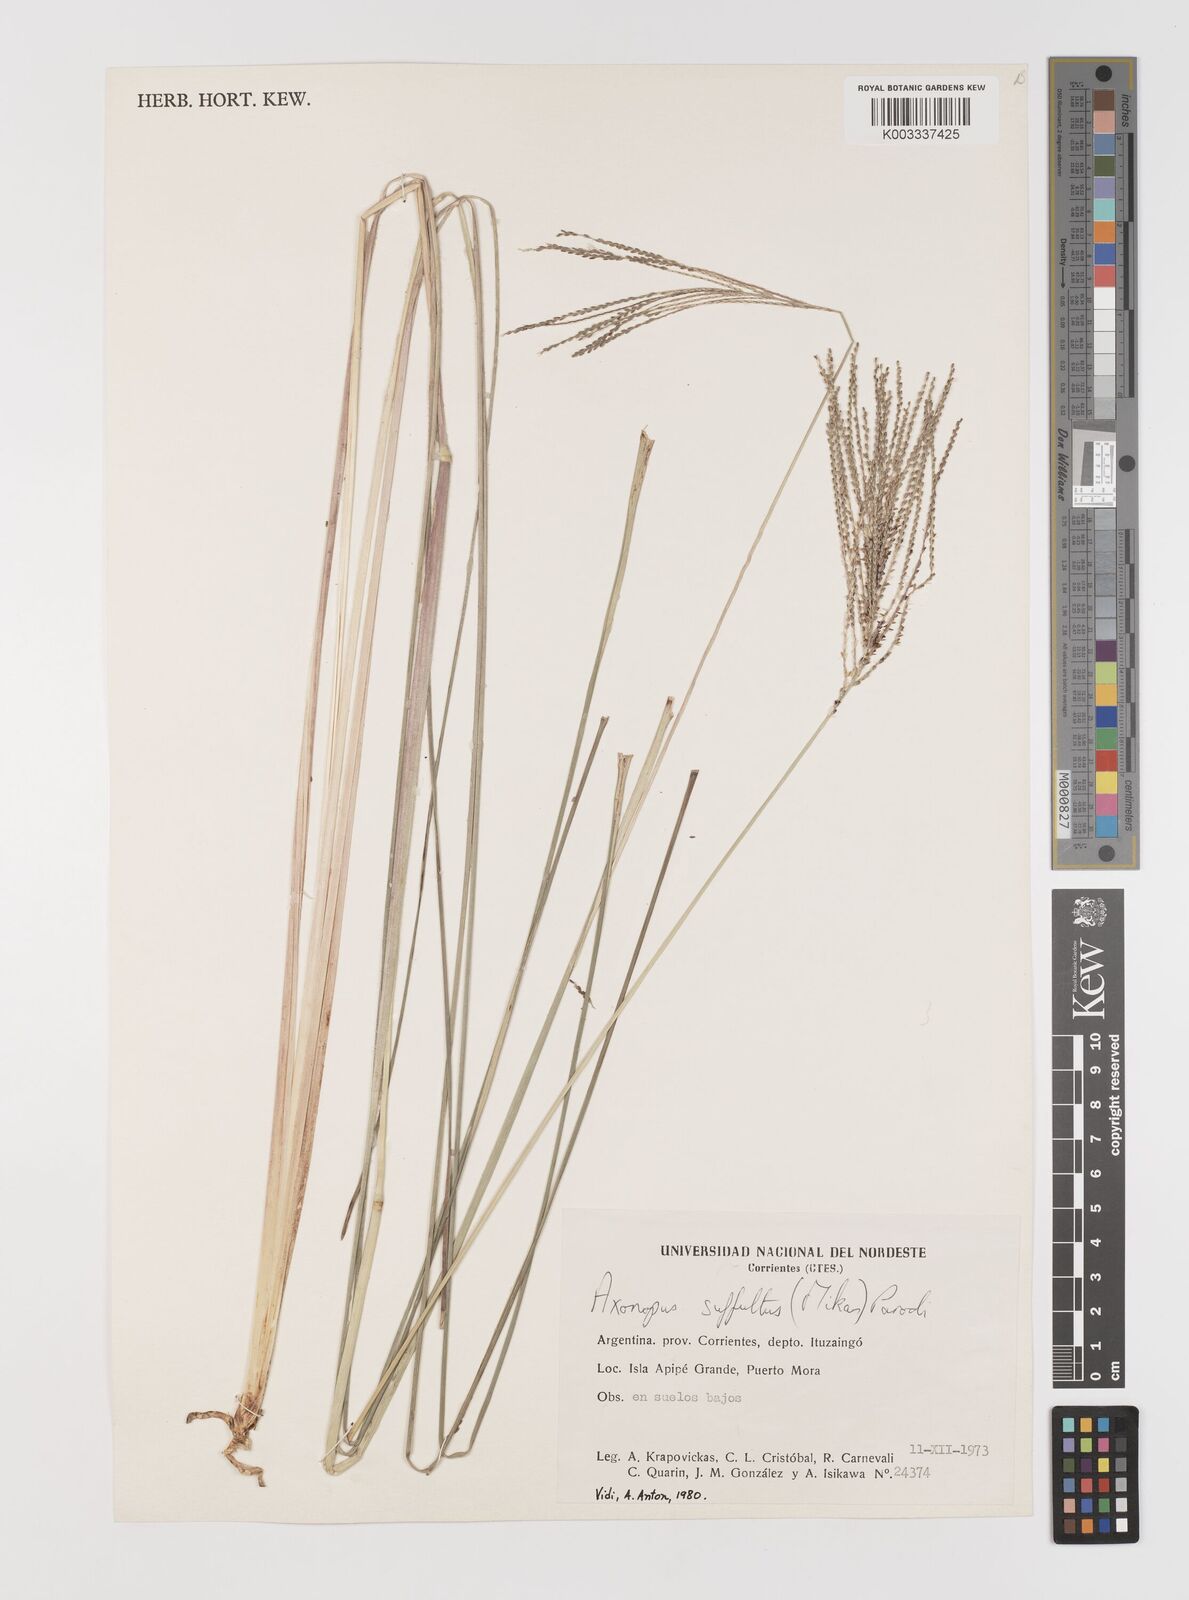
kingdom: Plantae
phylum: Tracheophyta
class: Liliopsida
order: Poales
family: Poaceae
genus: Axonopus
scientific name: Axonopus suffultus
